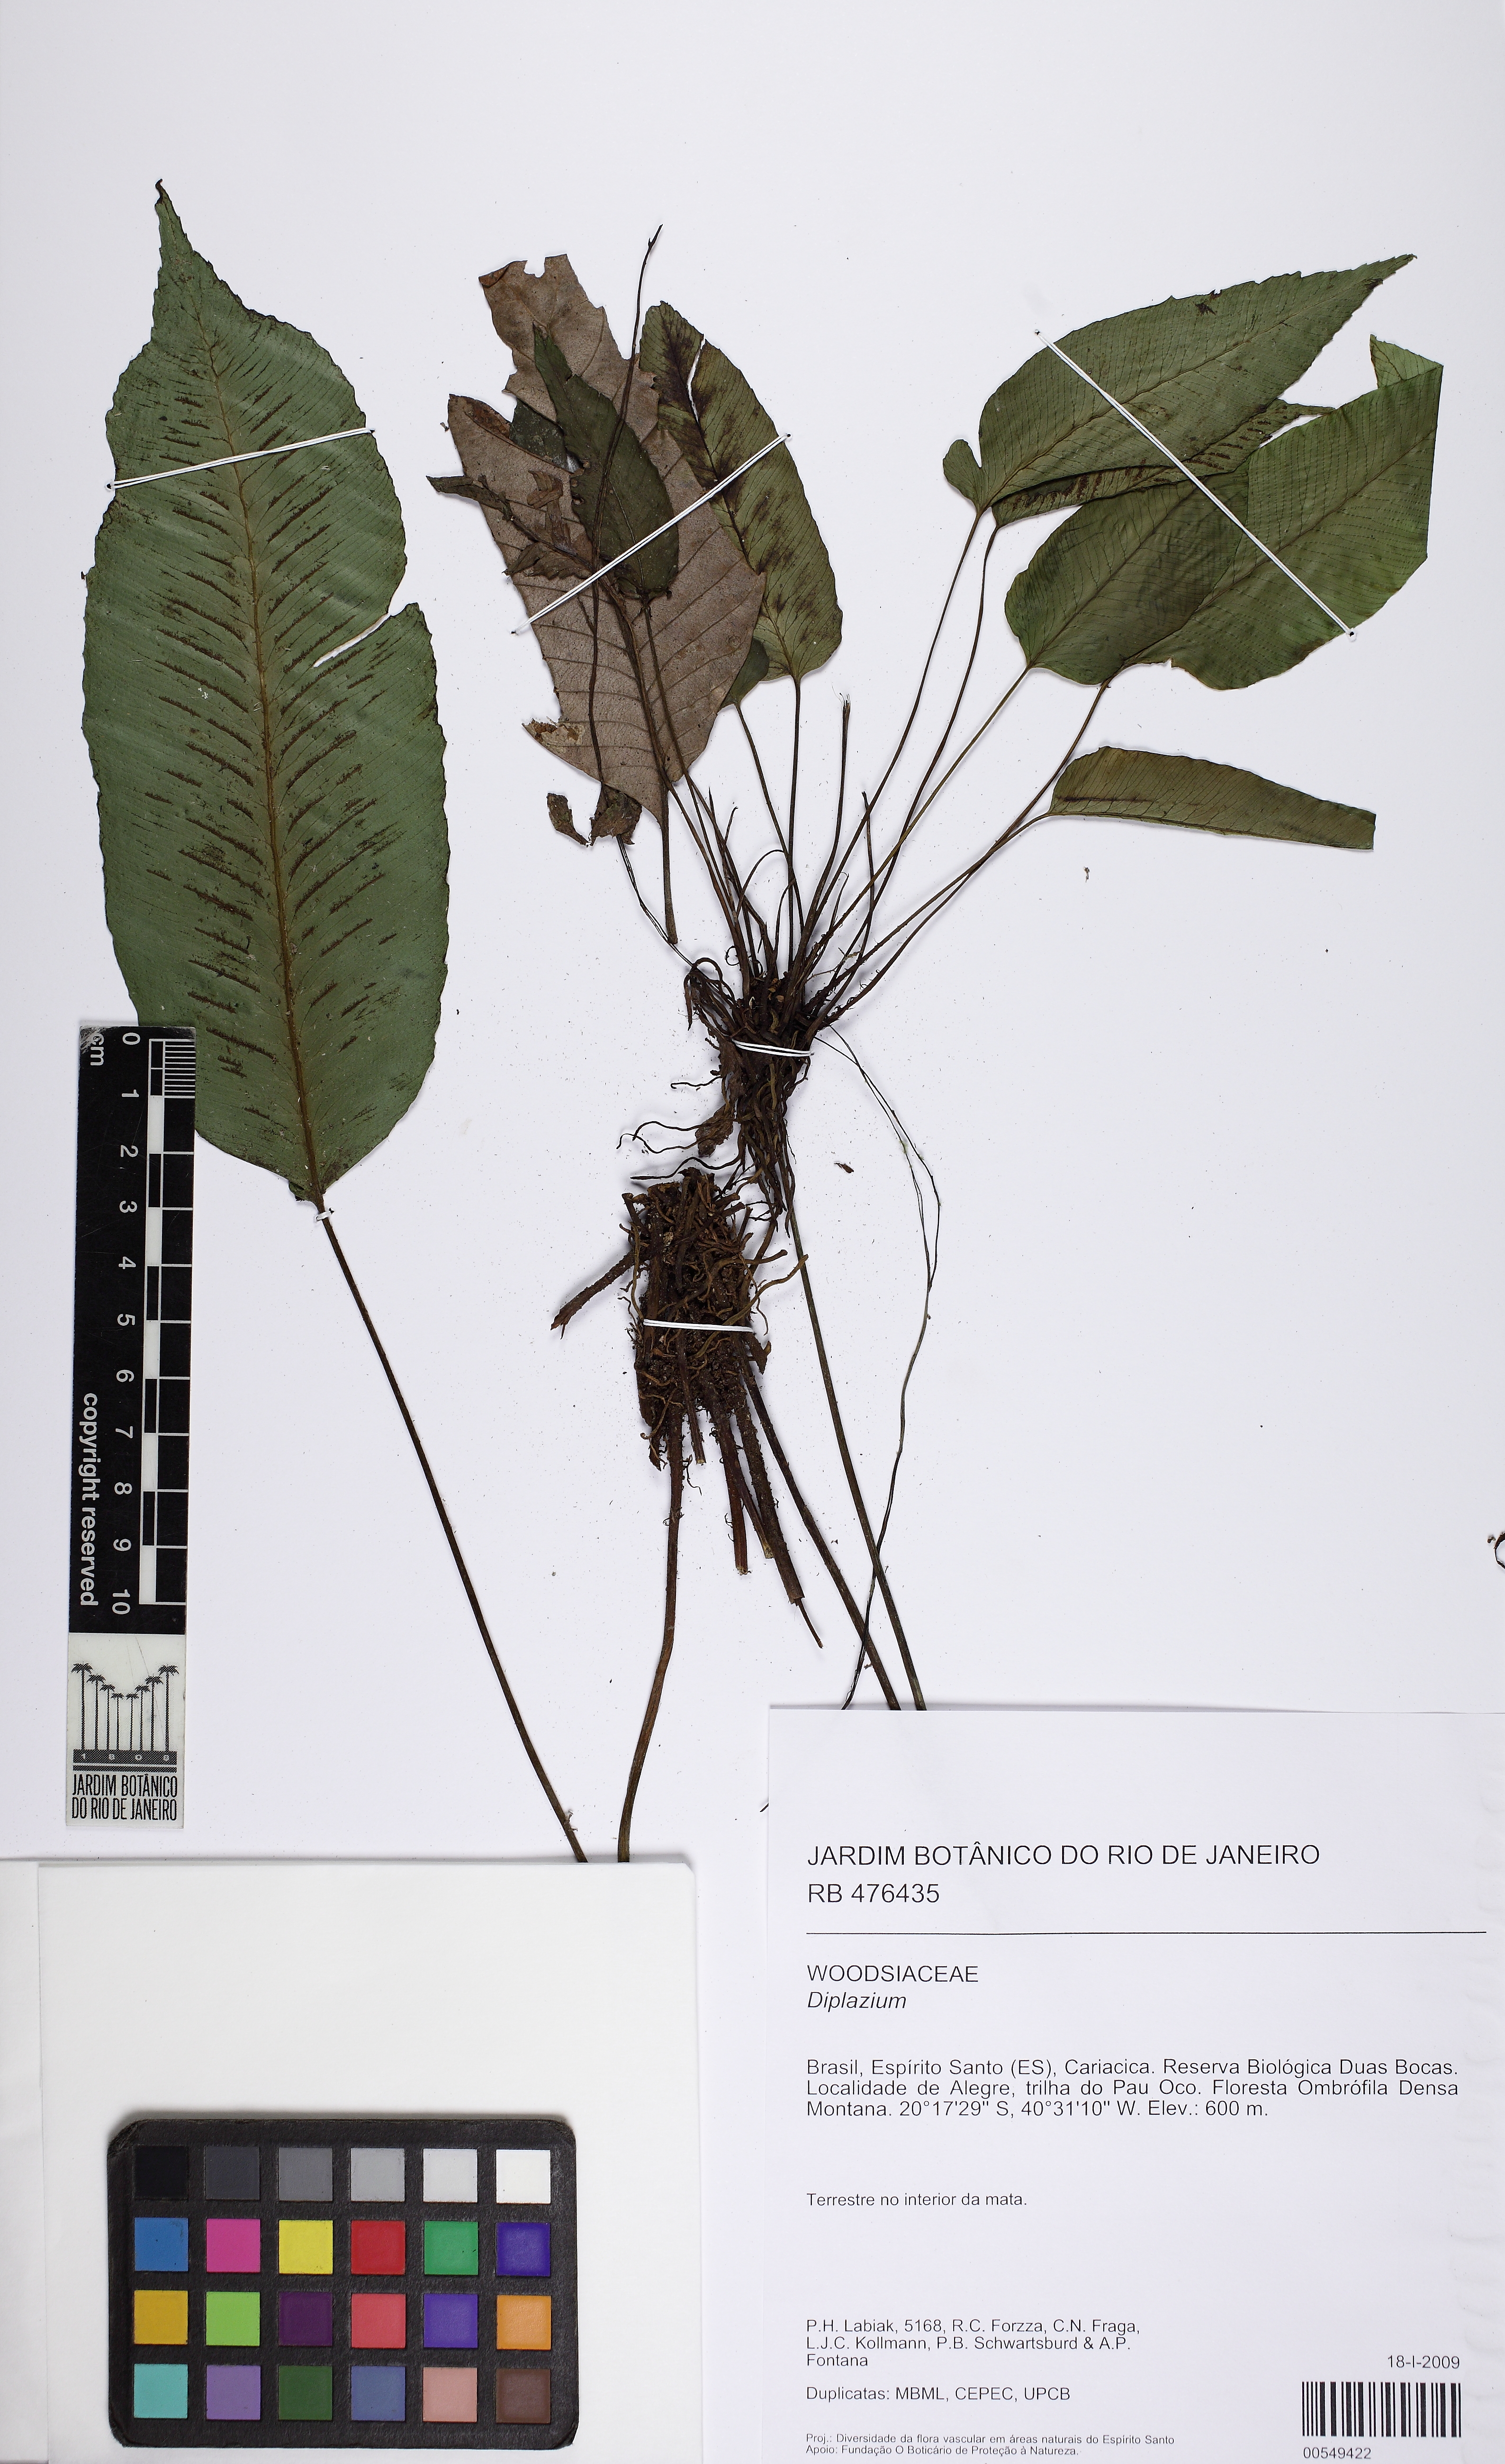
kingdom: Plantae
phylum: Tracheophyta
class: Polypodiopsida
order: Polypodiales
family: Athyriaceae
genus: Diplazium
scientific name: Diplazium plantaginifolium
